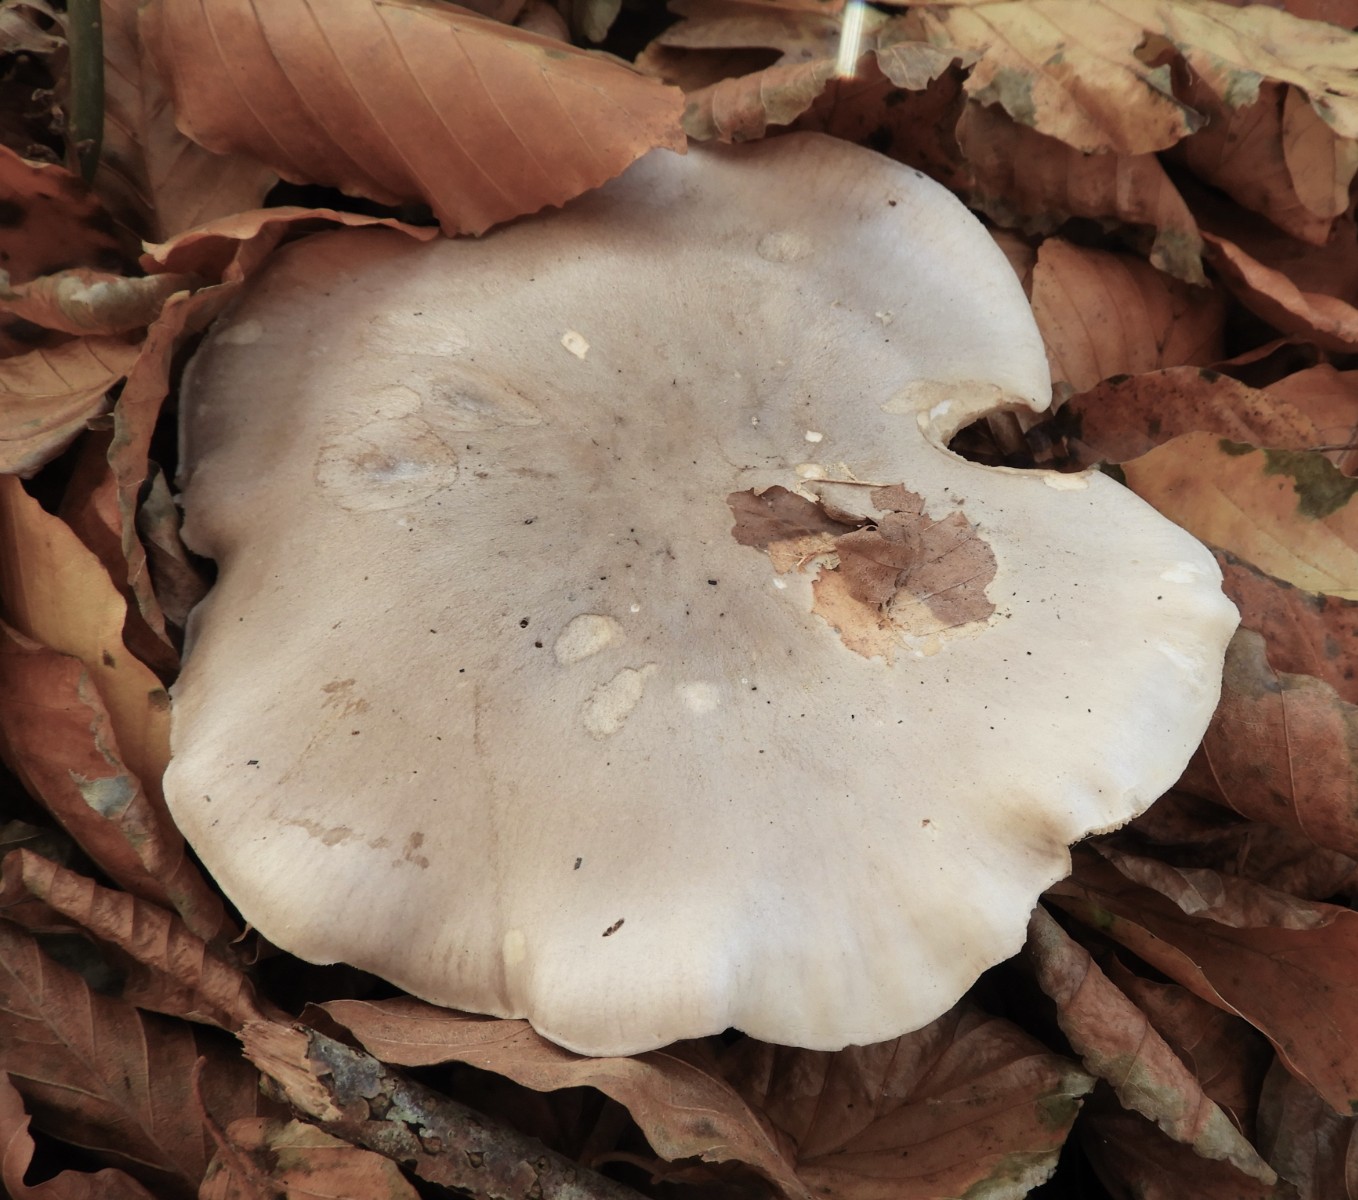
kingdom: Fungi
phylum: Basidiomycota
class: Agaricomycetes
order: Agaricales
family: Tricholomataceae
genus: Clitocybe
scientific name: Clitocybe nebularis
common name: tåge-tragthat
